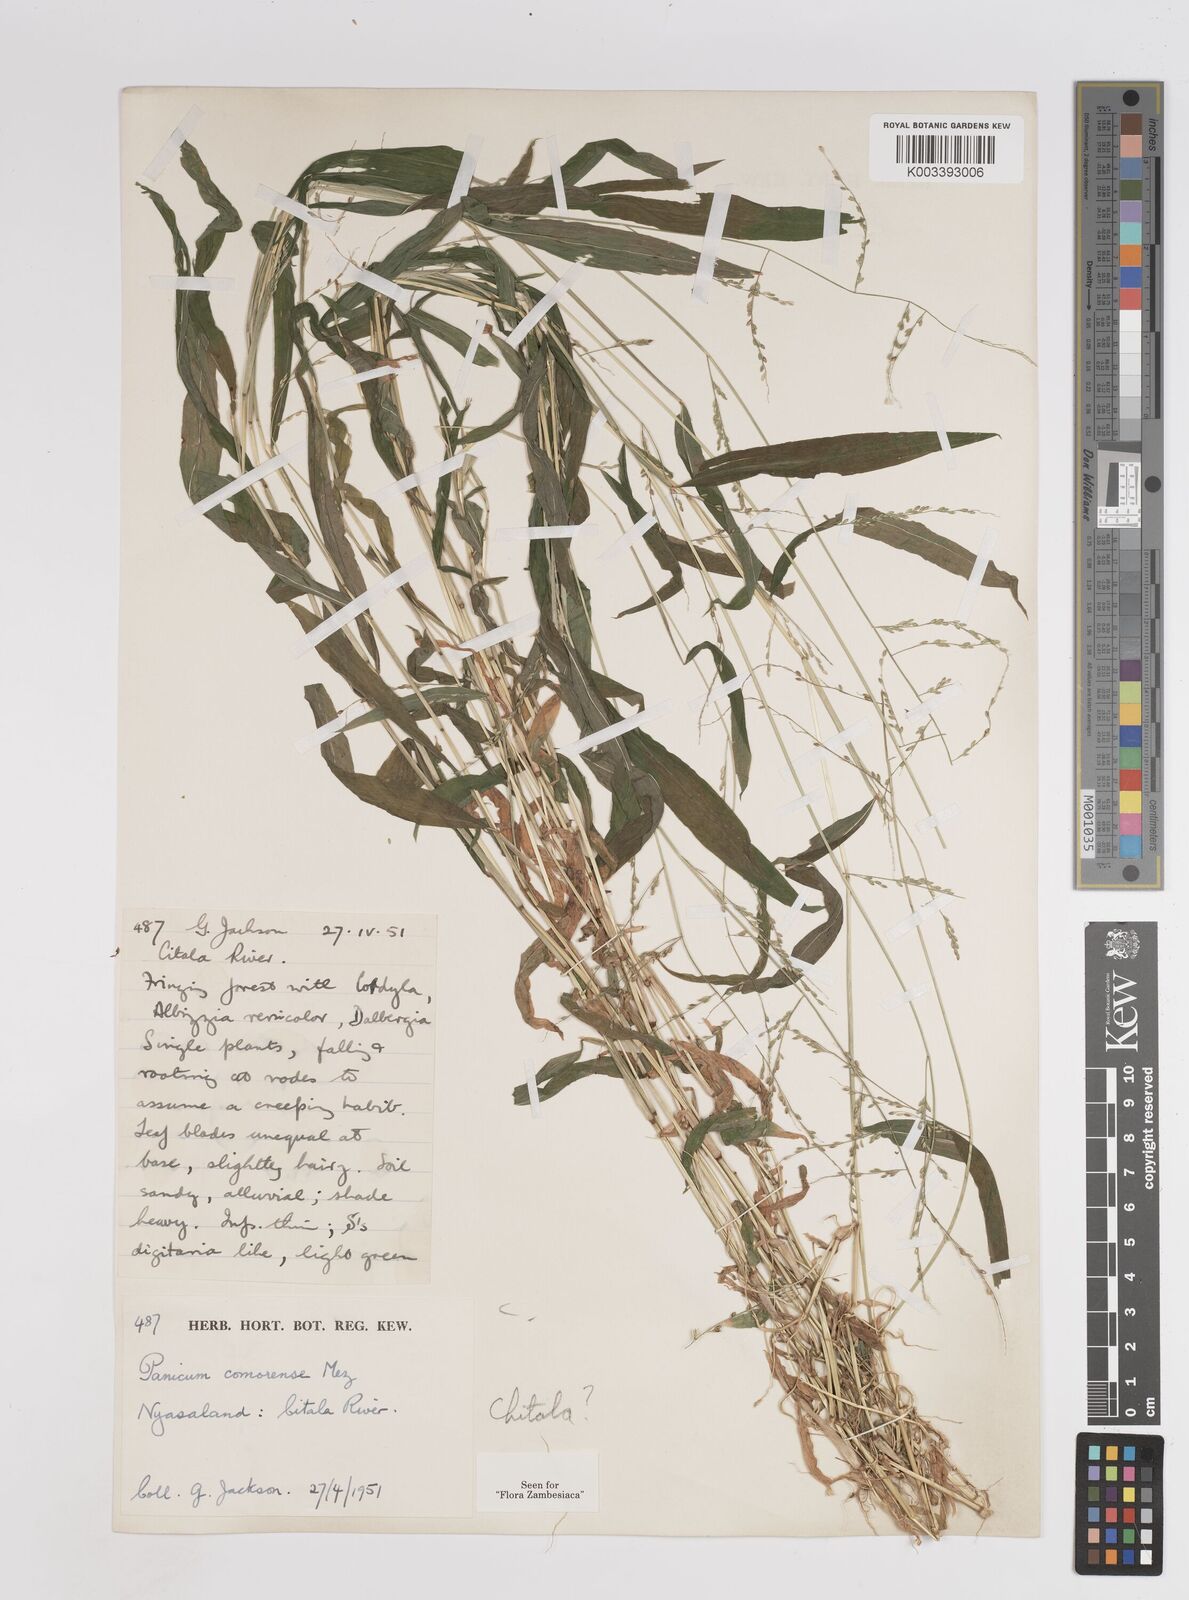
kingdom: Plantae
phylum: Tracheophyta
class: Liliopsida
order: Poales
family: Poaceae
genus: Panicum
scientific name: Panicum comorense
